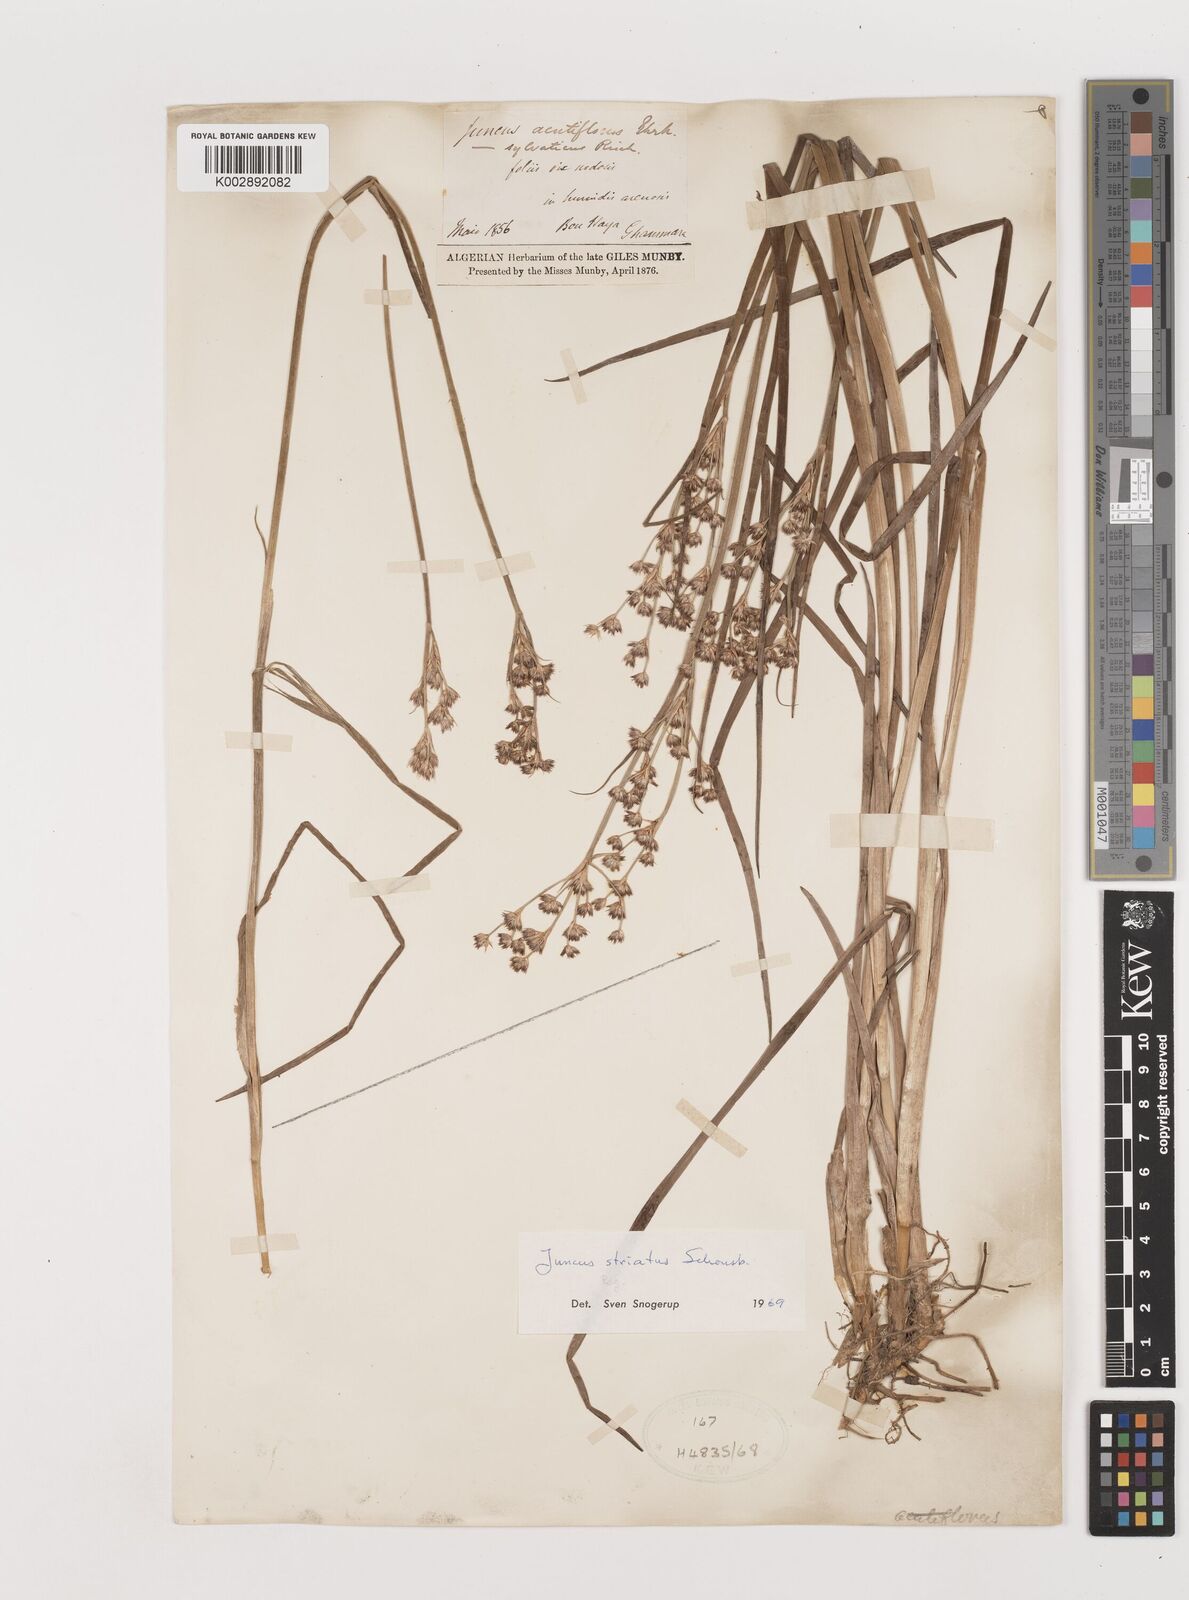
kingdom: Plantae
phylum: Tracheophyta
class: Liliopsida
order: Poales
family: Juncaceae
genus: Juncus
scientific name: Juncus striatus
